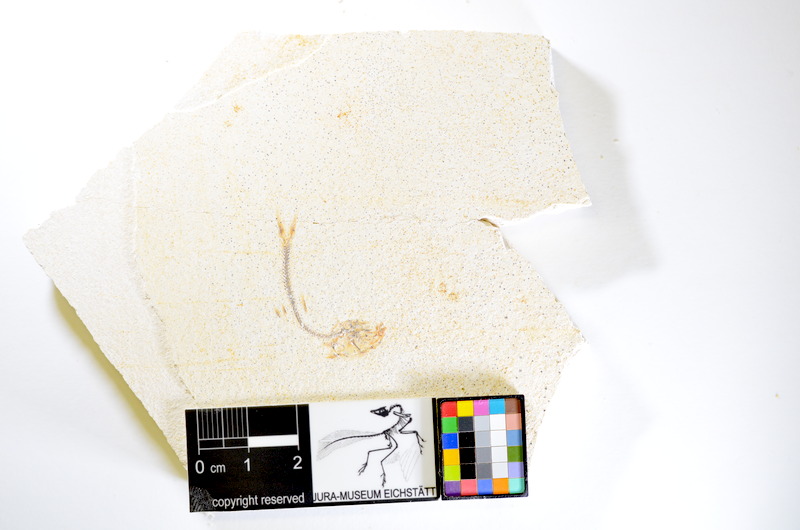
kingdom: Animalia
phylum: Chordata
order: Salmoniformes
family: Orthogonikleithridae
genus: Orthogonikleithrus
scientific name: Orthogonikleithrus hoelli
